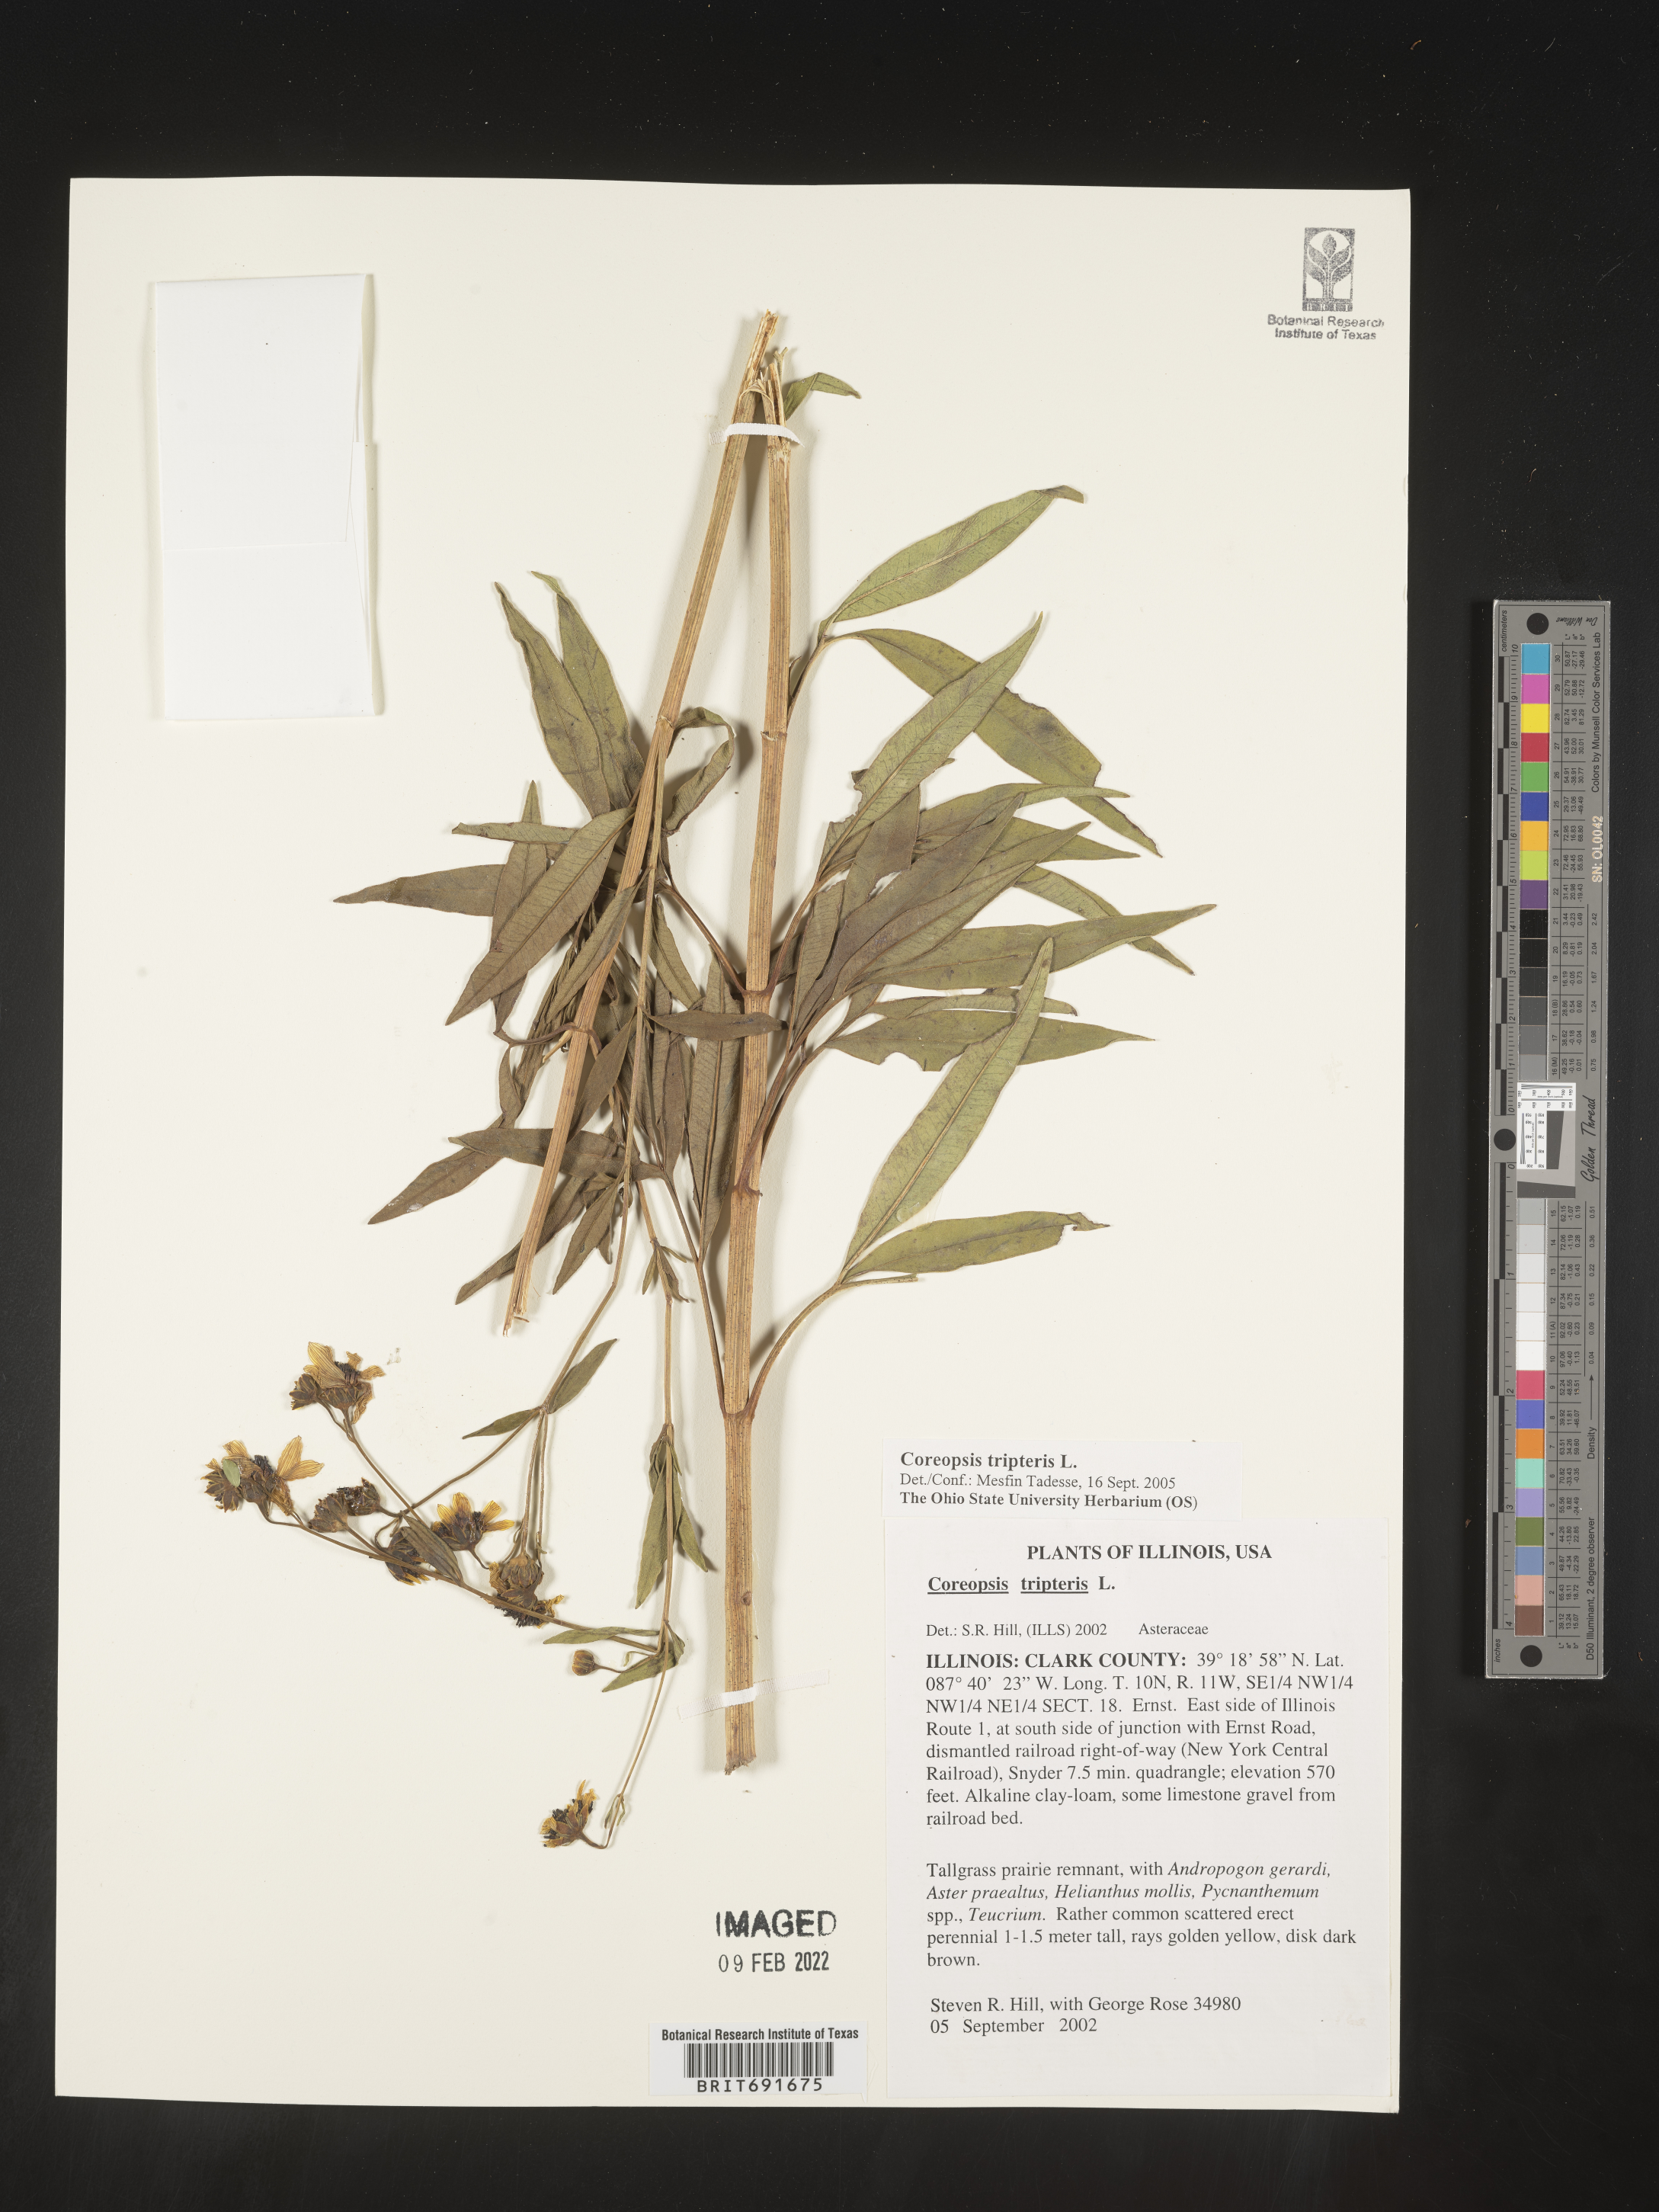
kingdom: Plantae
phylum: Tracheophyta
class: Magnoliopsida
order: Asterales
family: Asteraceae
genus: Coreopsis
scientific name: Coreopsis tripteris
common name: Tall coreopsis
